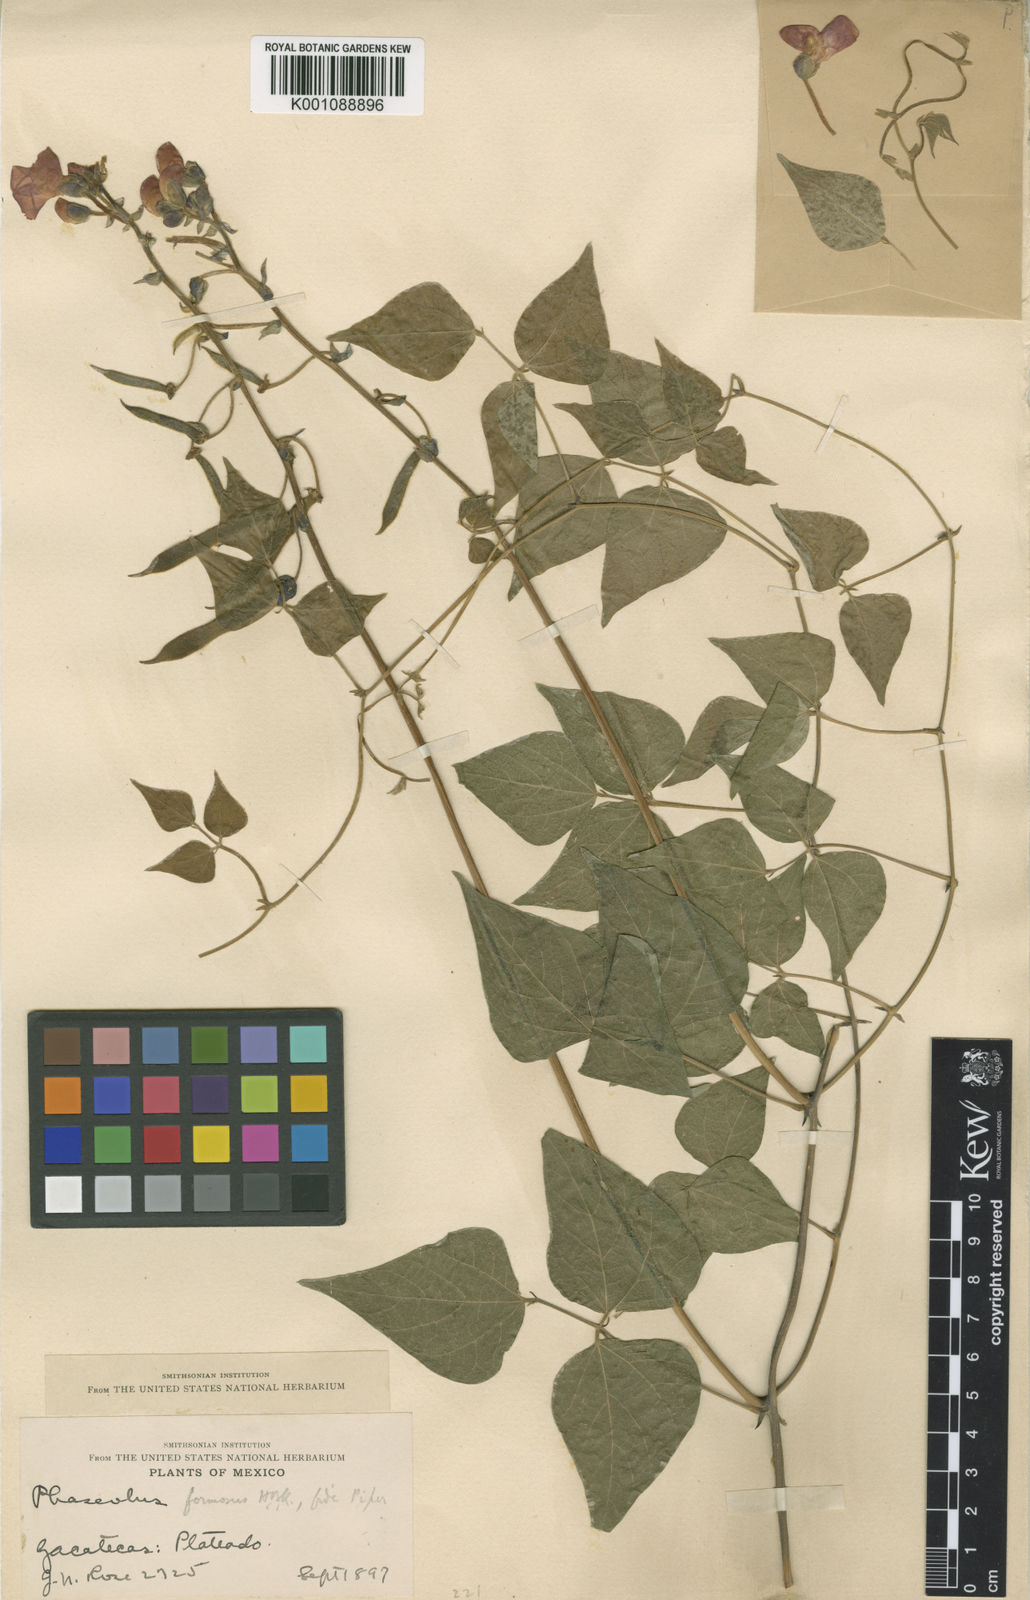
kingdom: Plantae
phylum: Tracheophyta
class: Magnoliopsida
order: Fabales
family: Fabaceae
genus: Phaseolus
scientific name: Phaseolus coccineus
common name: Runner bean
